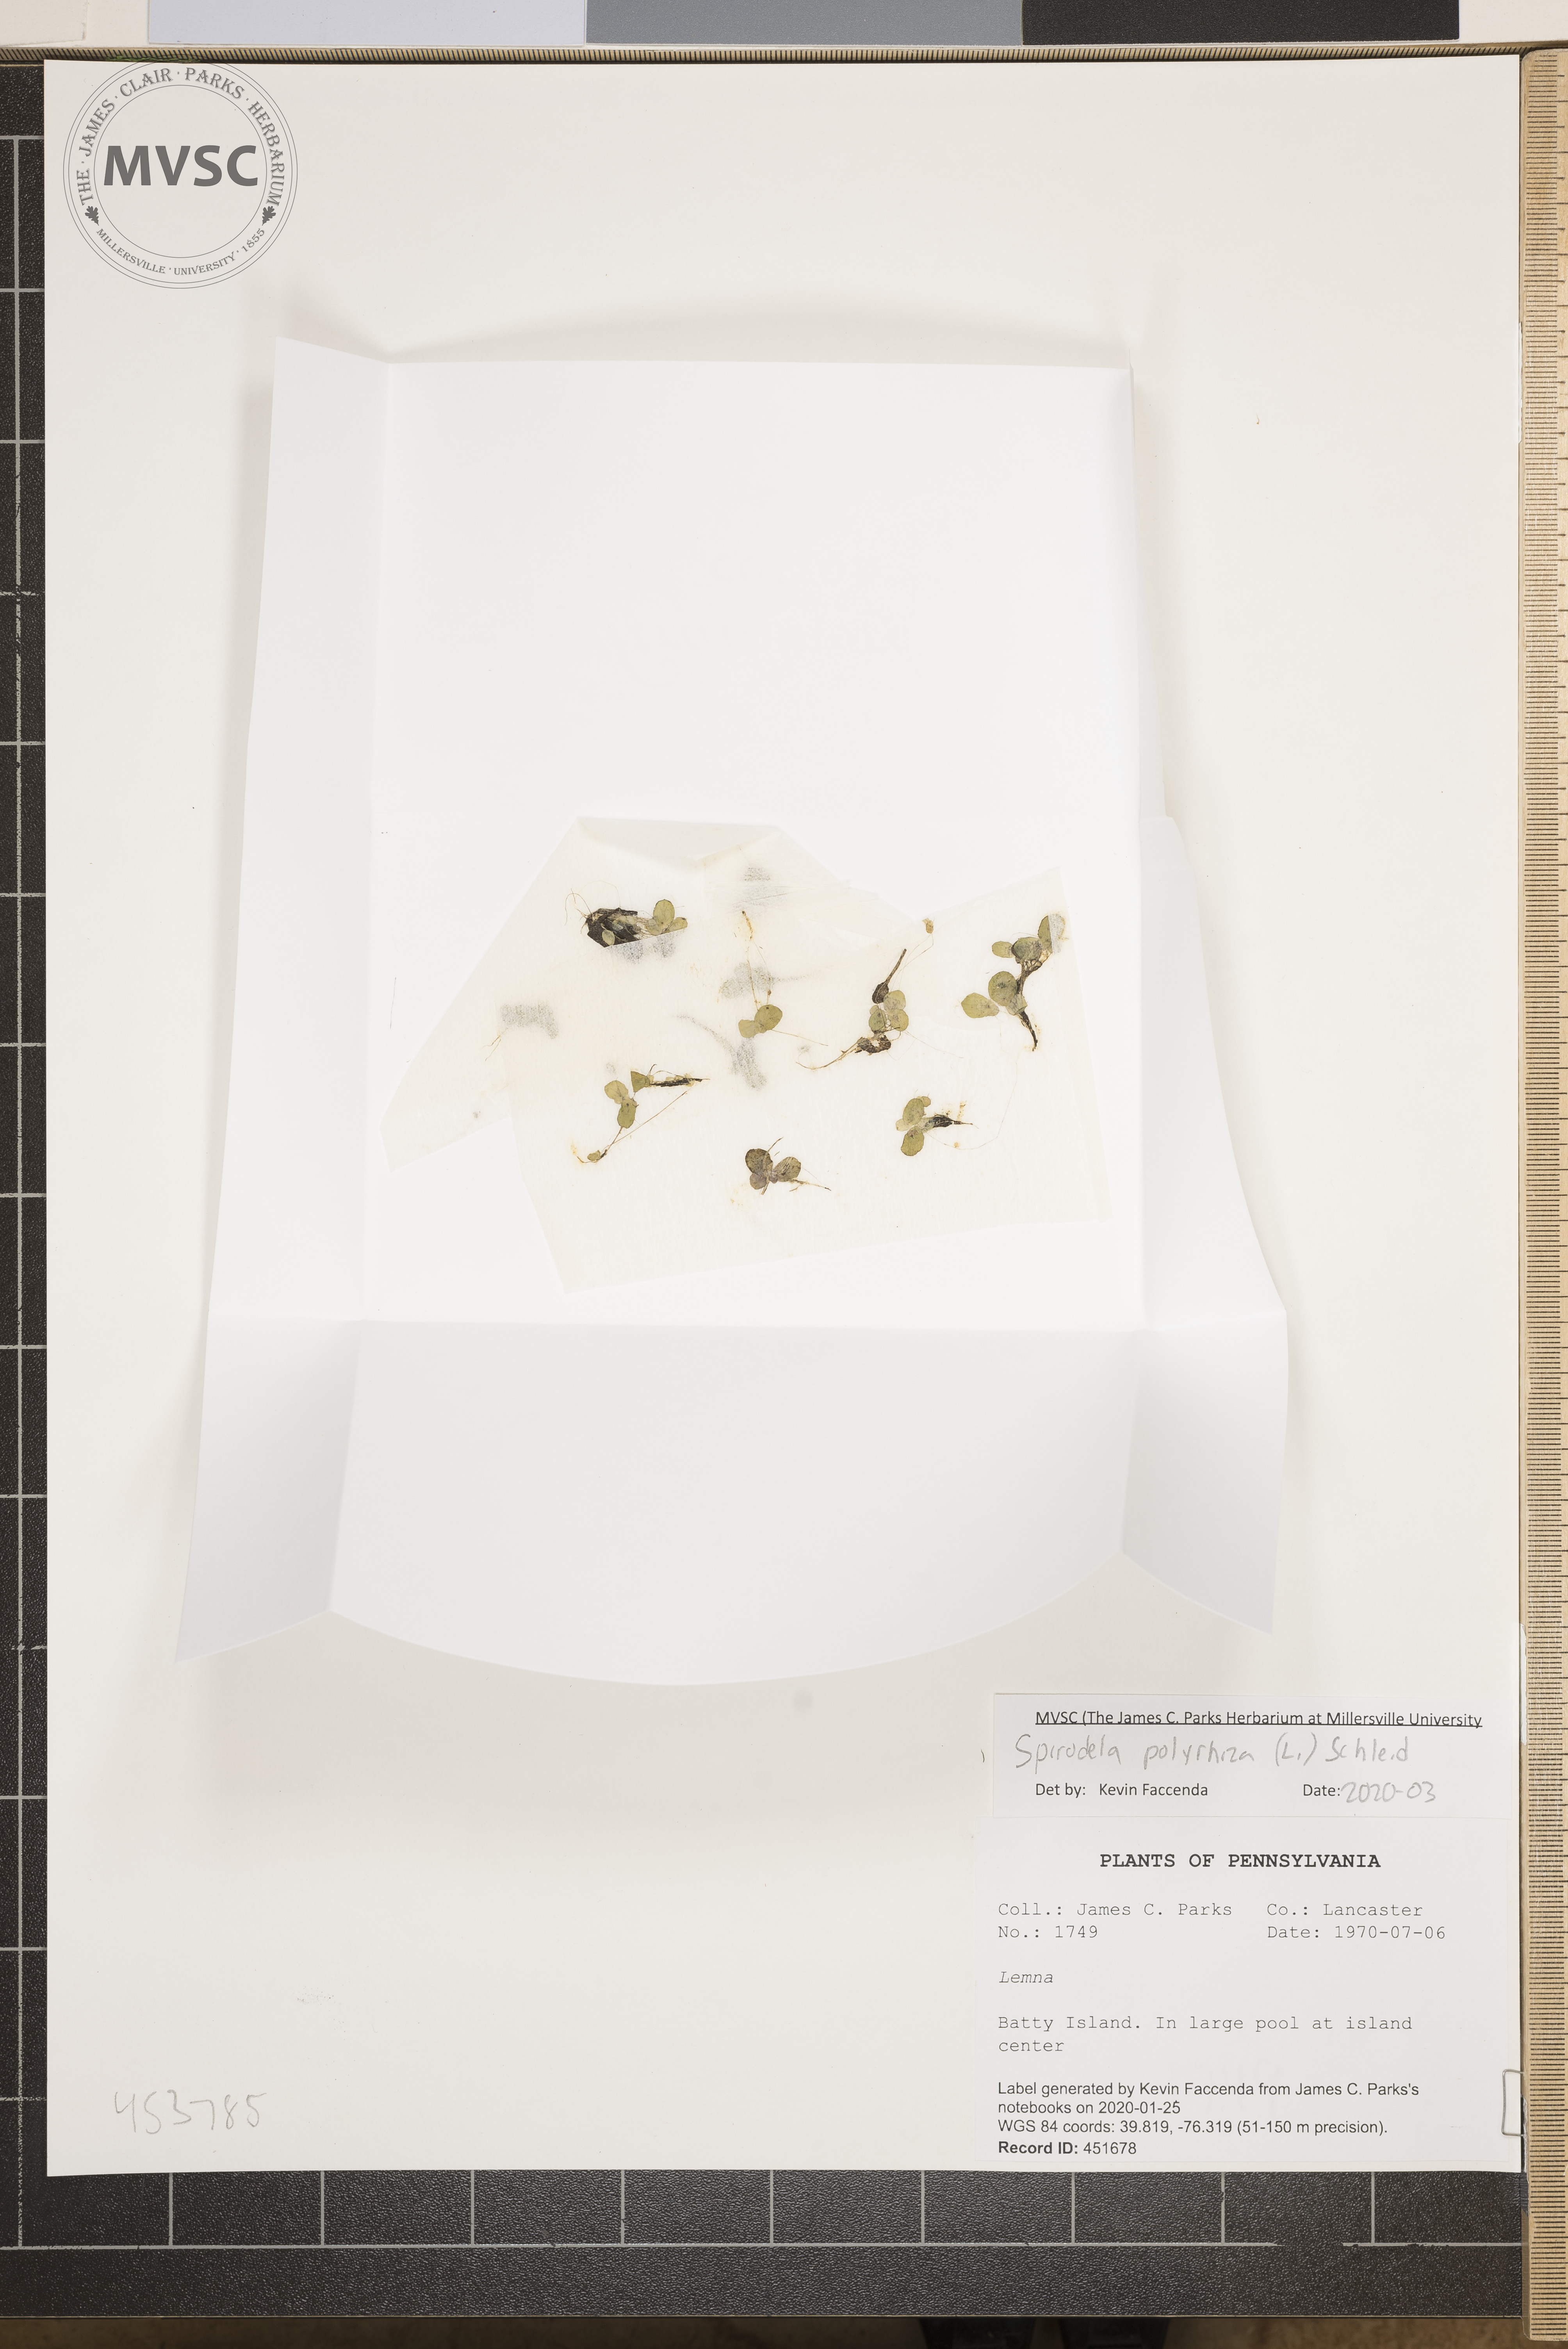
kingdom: Plantae
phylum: Tracheophyta
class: Liliopsida
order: Alismatales
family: Araceae
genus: Spirodela
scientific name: Spirodela polyrhiza
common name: Great duckweed
